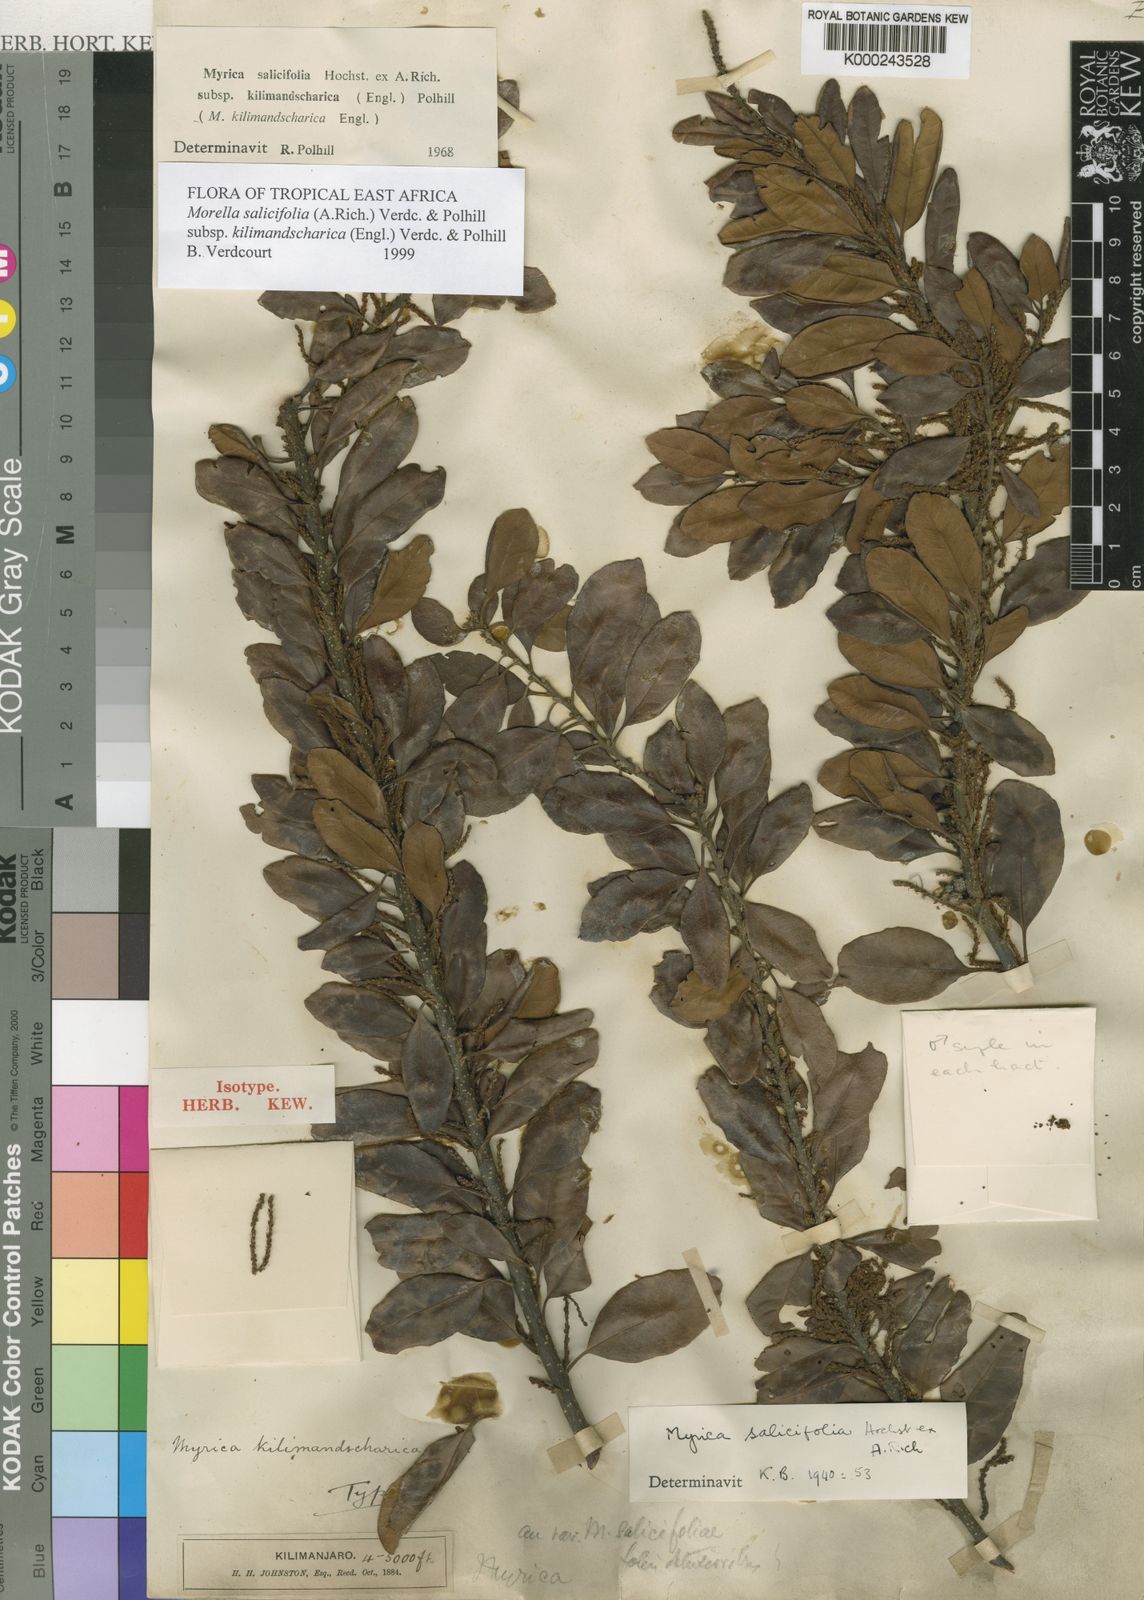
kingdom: Plantae
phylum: Tracheophyta
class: Magnoliopsida
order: Fagales
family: Myricaceae
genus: Morella
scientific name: Morella salicifolia
